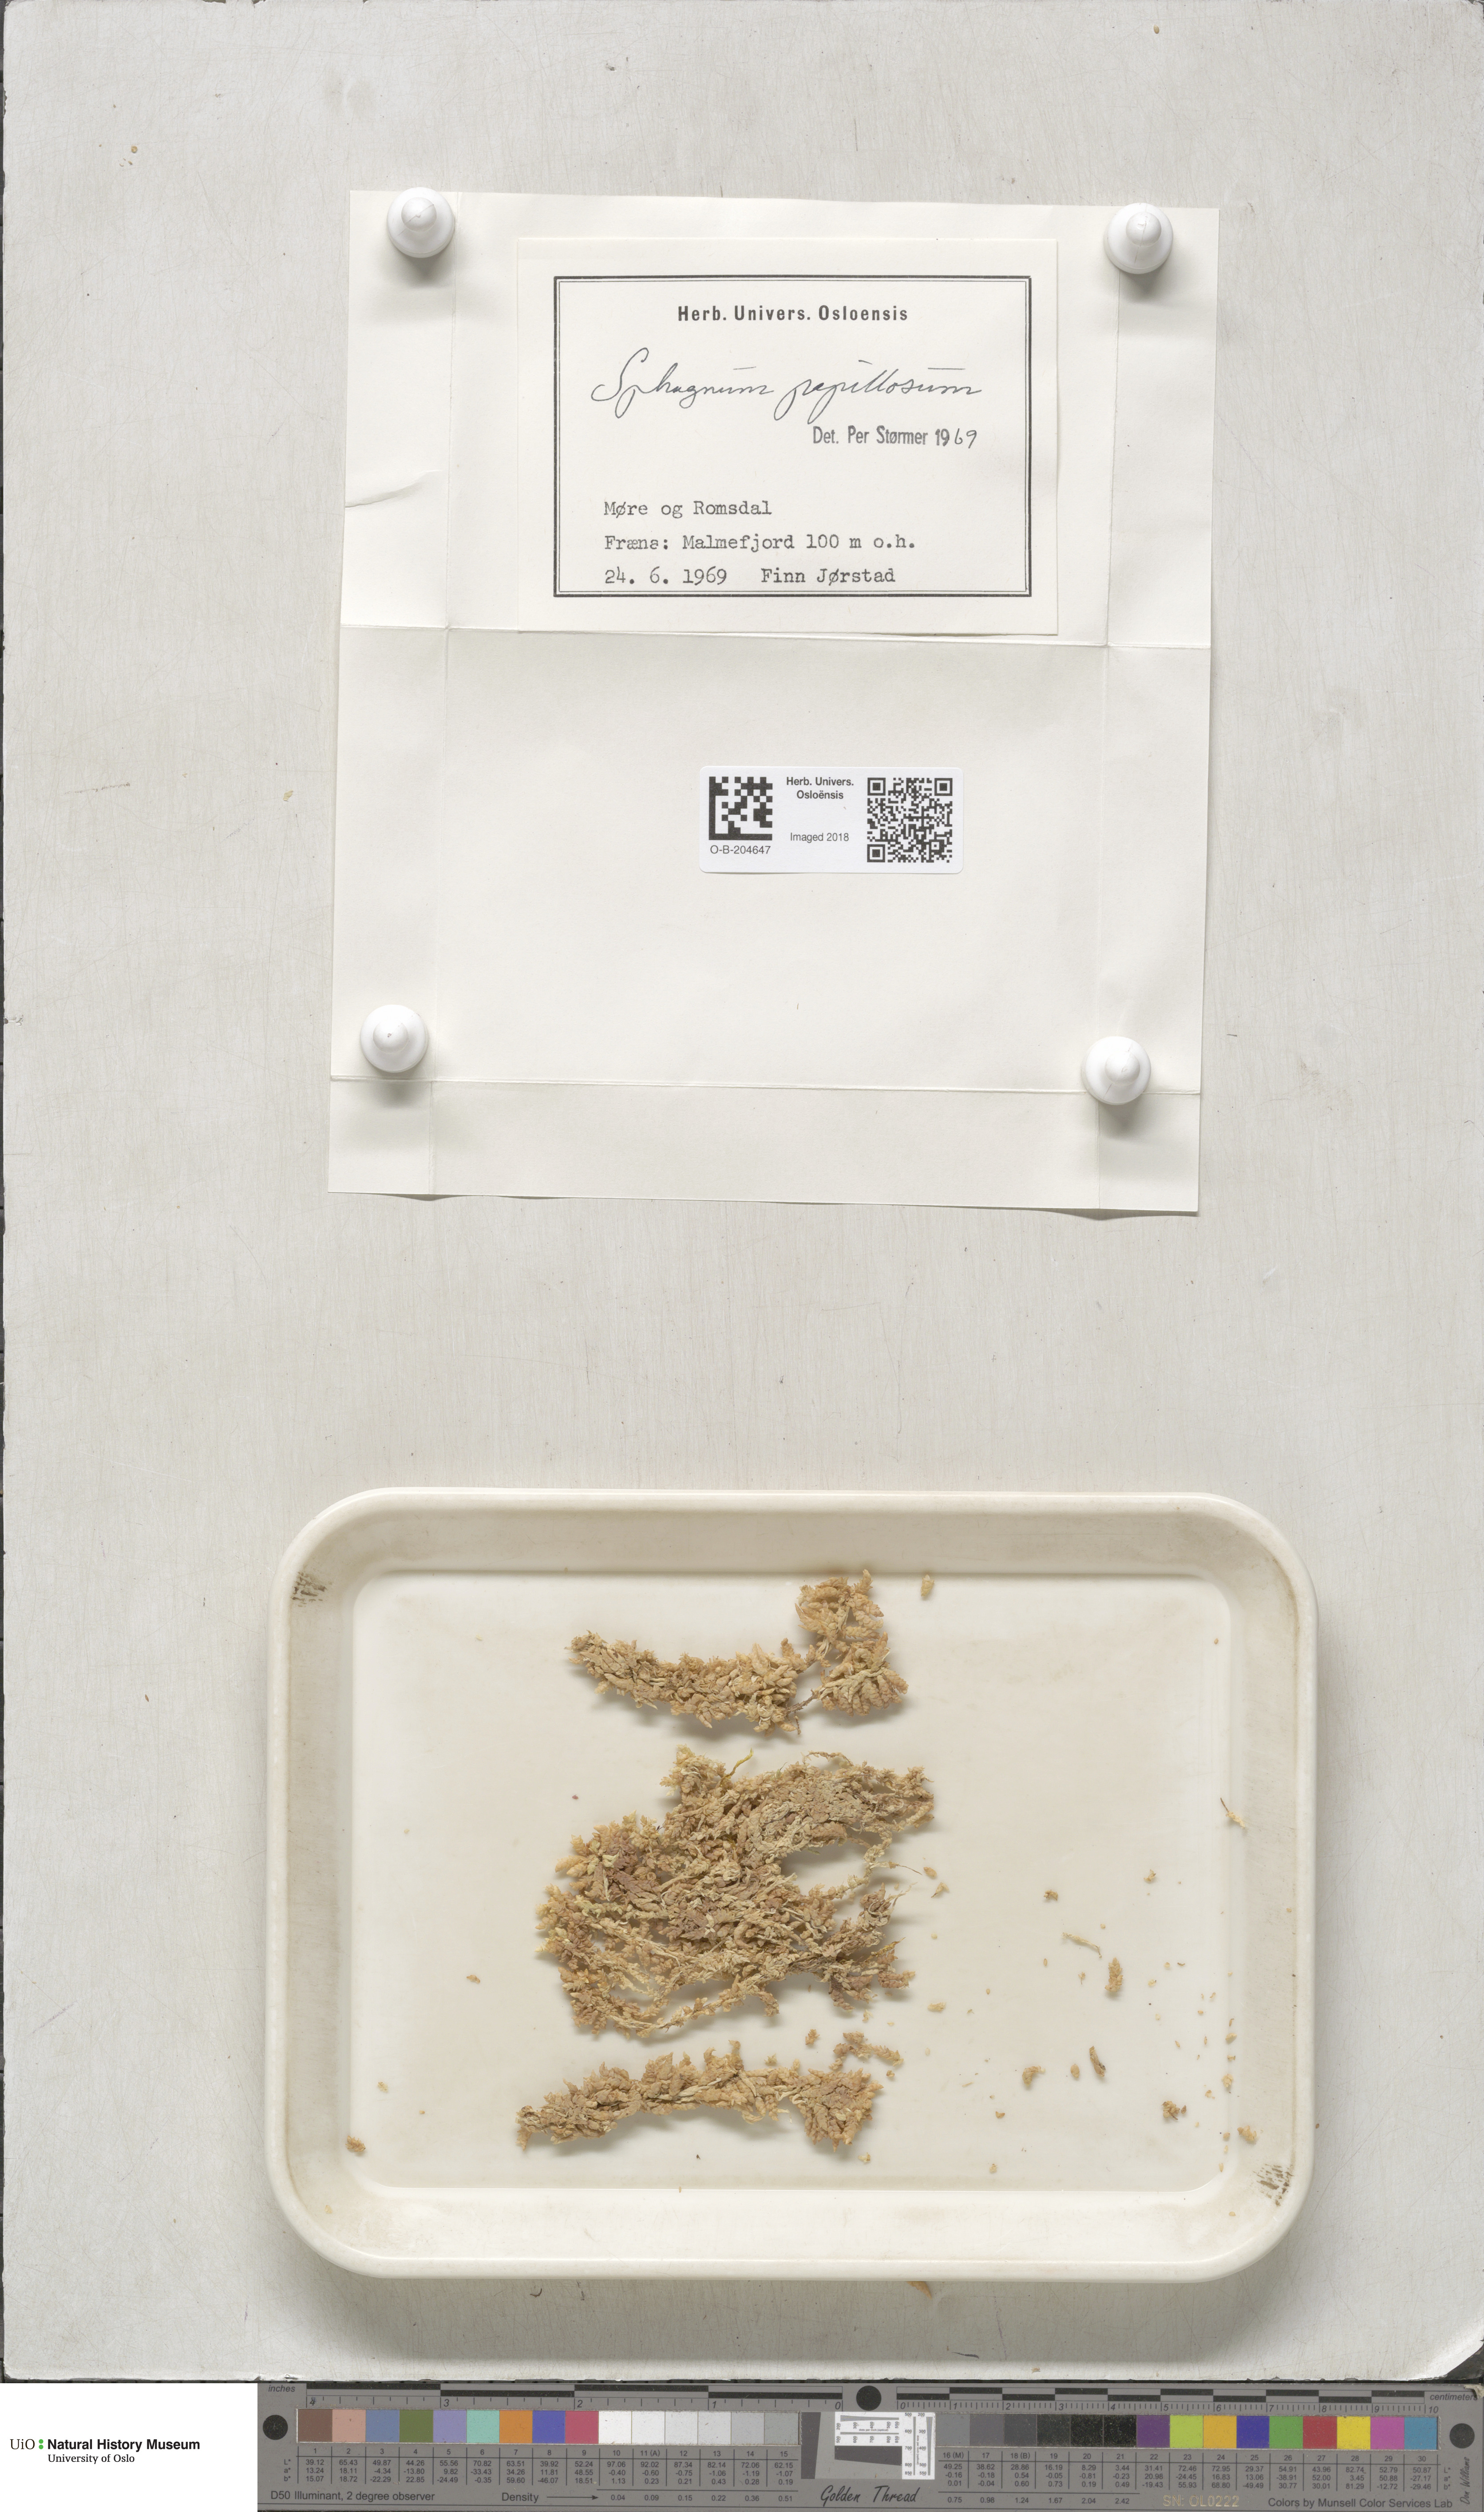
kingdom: Plantae
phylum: Bryophyta
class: Sphagnopsida
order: Sphagnales
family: Sphagnaceae
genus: Sphagnum
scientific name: Sphagnum papillosum
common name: Papillose peat moss
